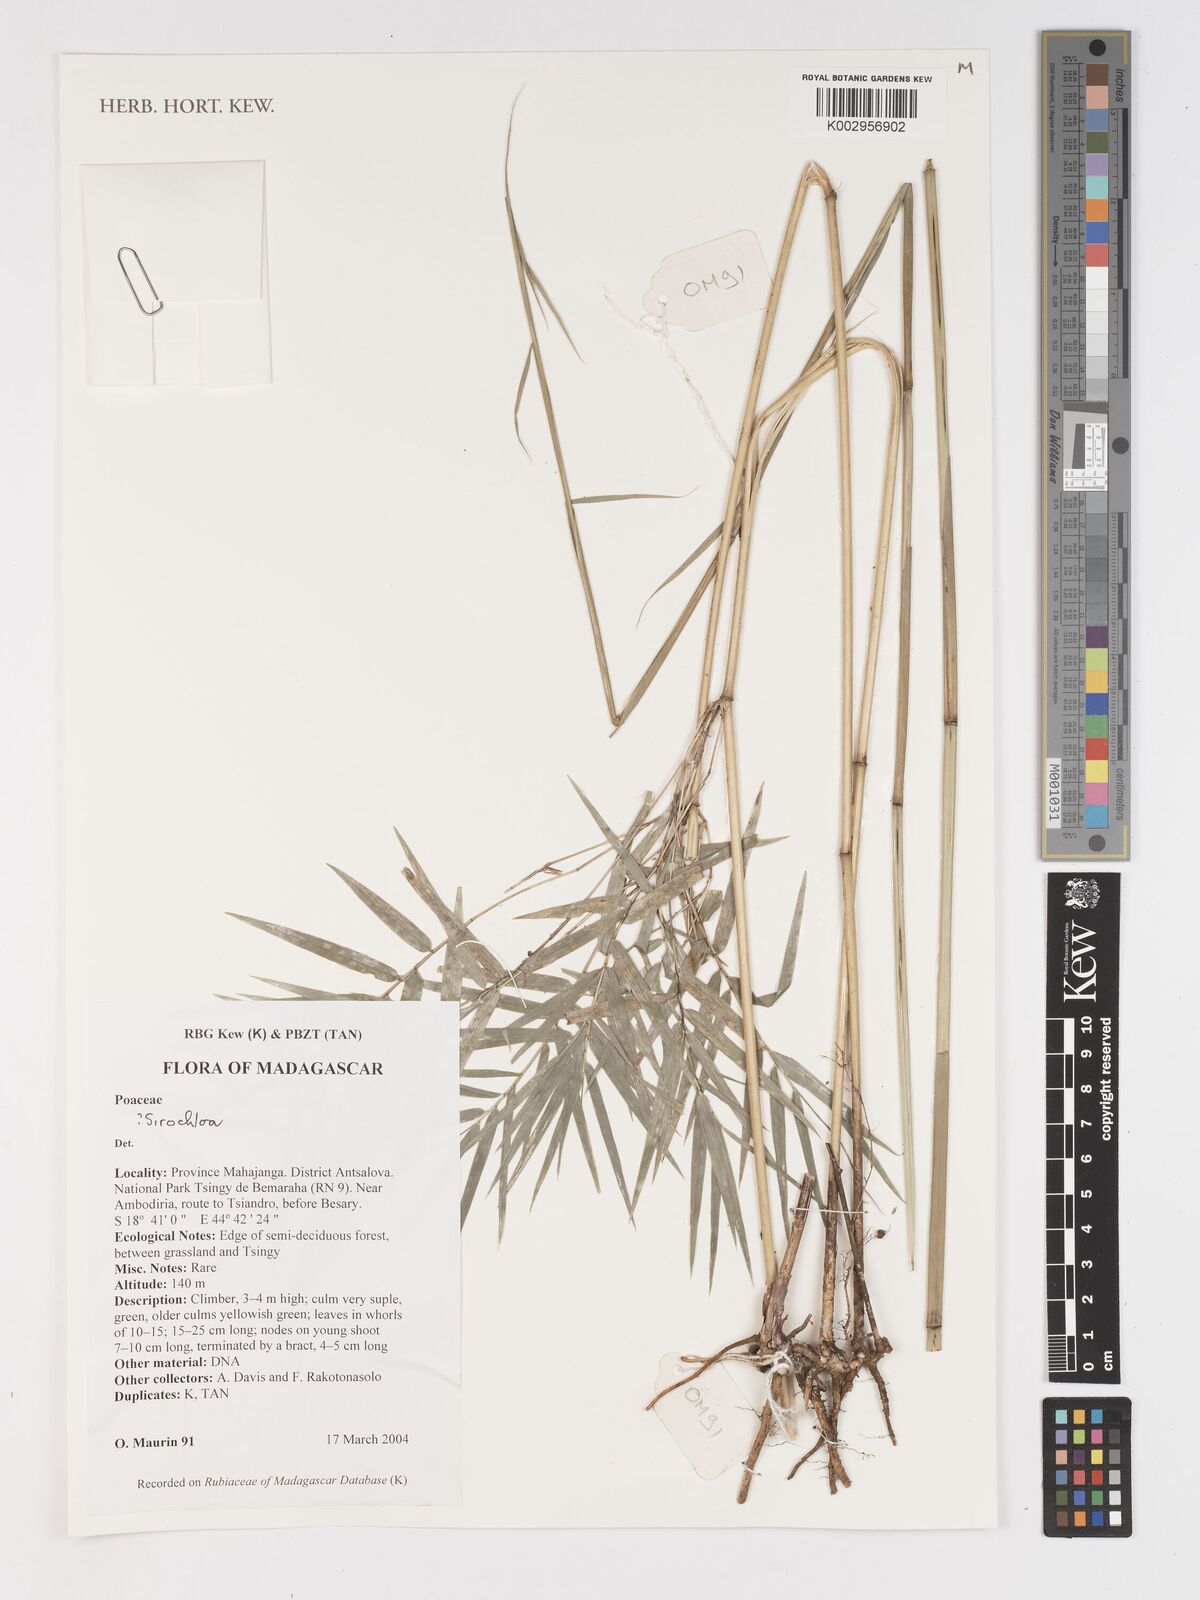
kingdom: Plantae
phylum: Tracheophyta
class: Liliopsida
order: Poales
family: Poaceae
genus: Sirochloa
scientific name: Sirochloa
